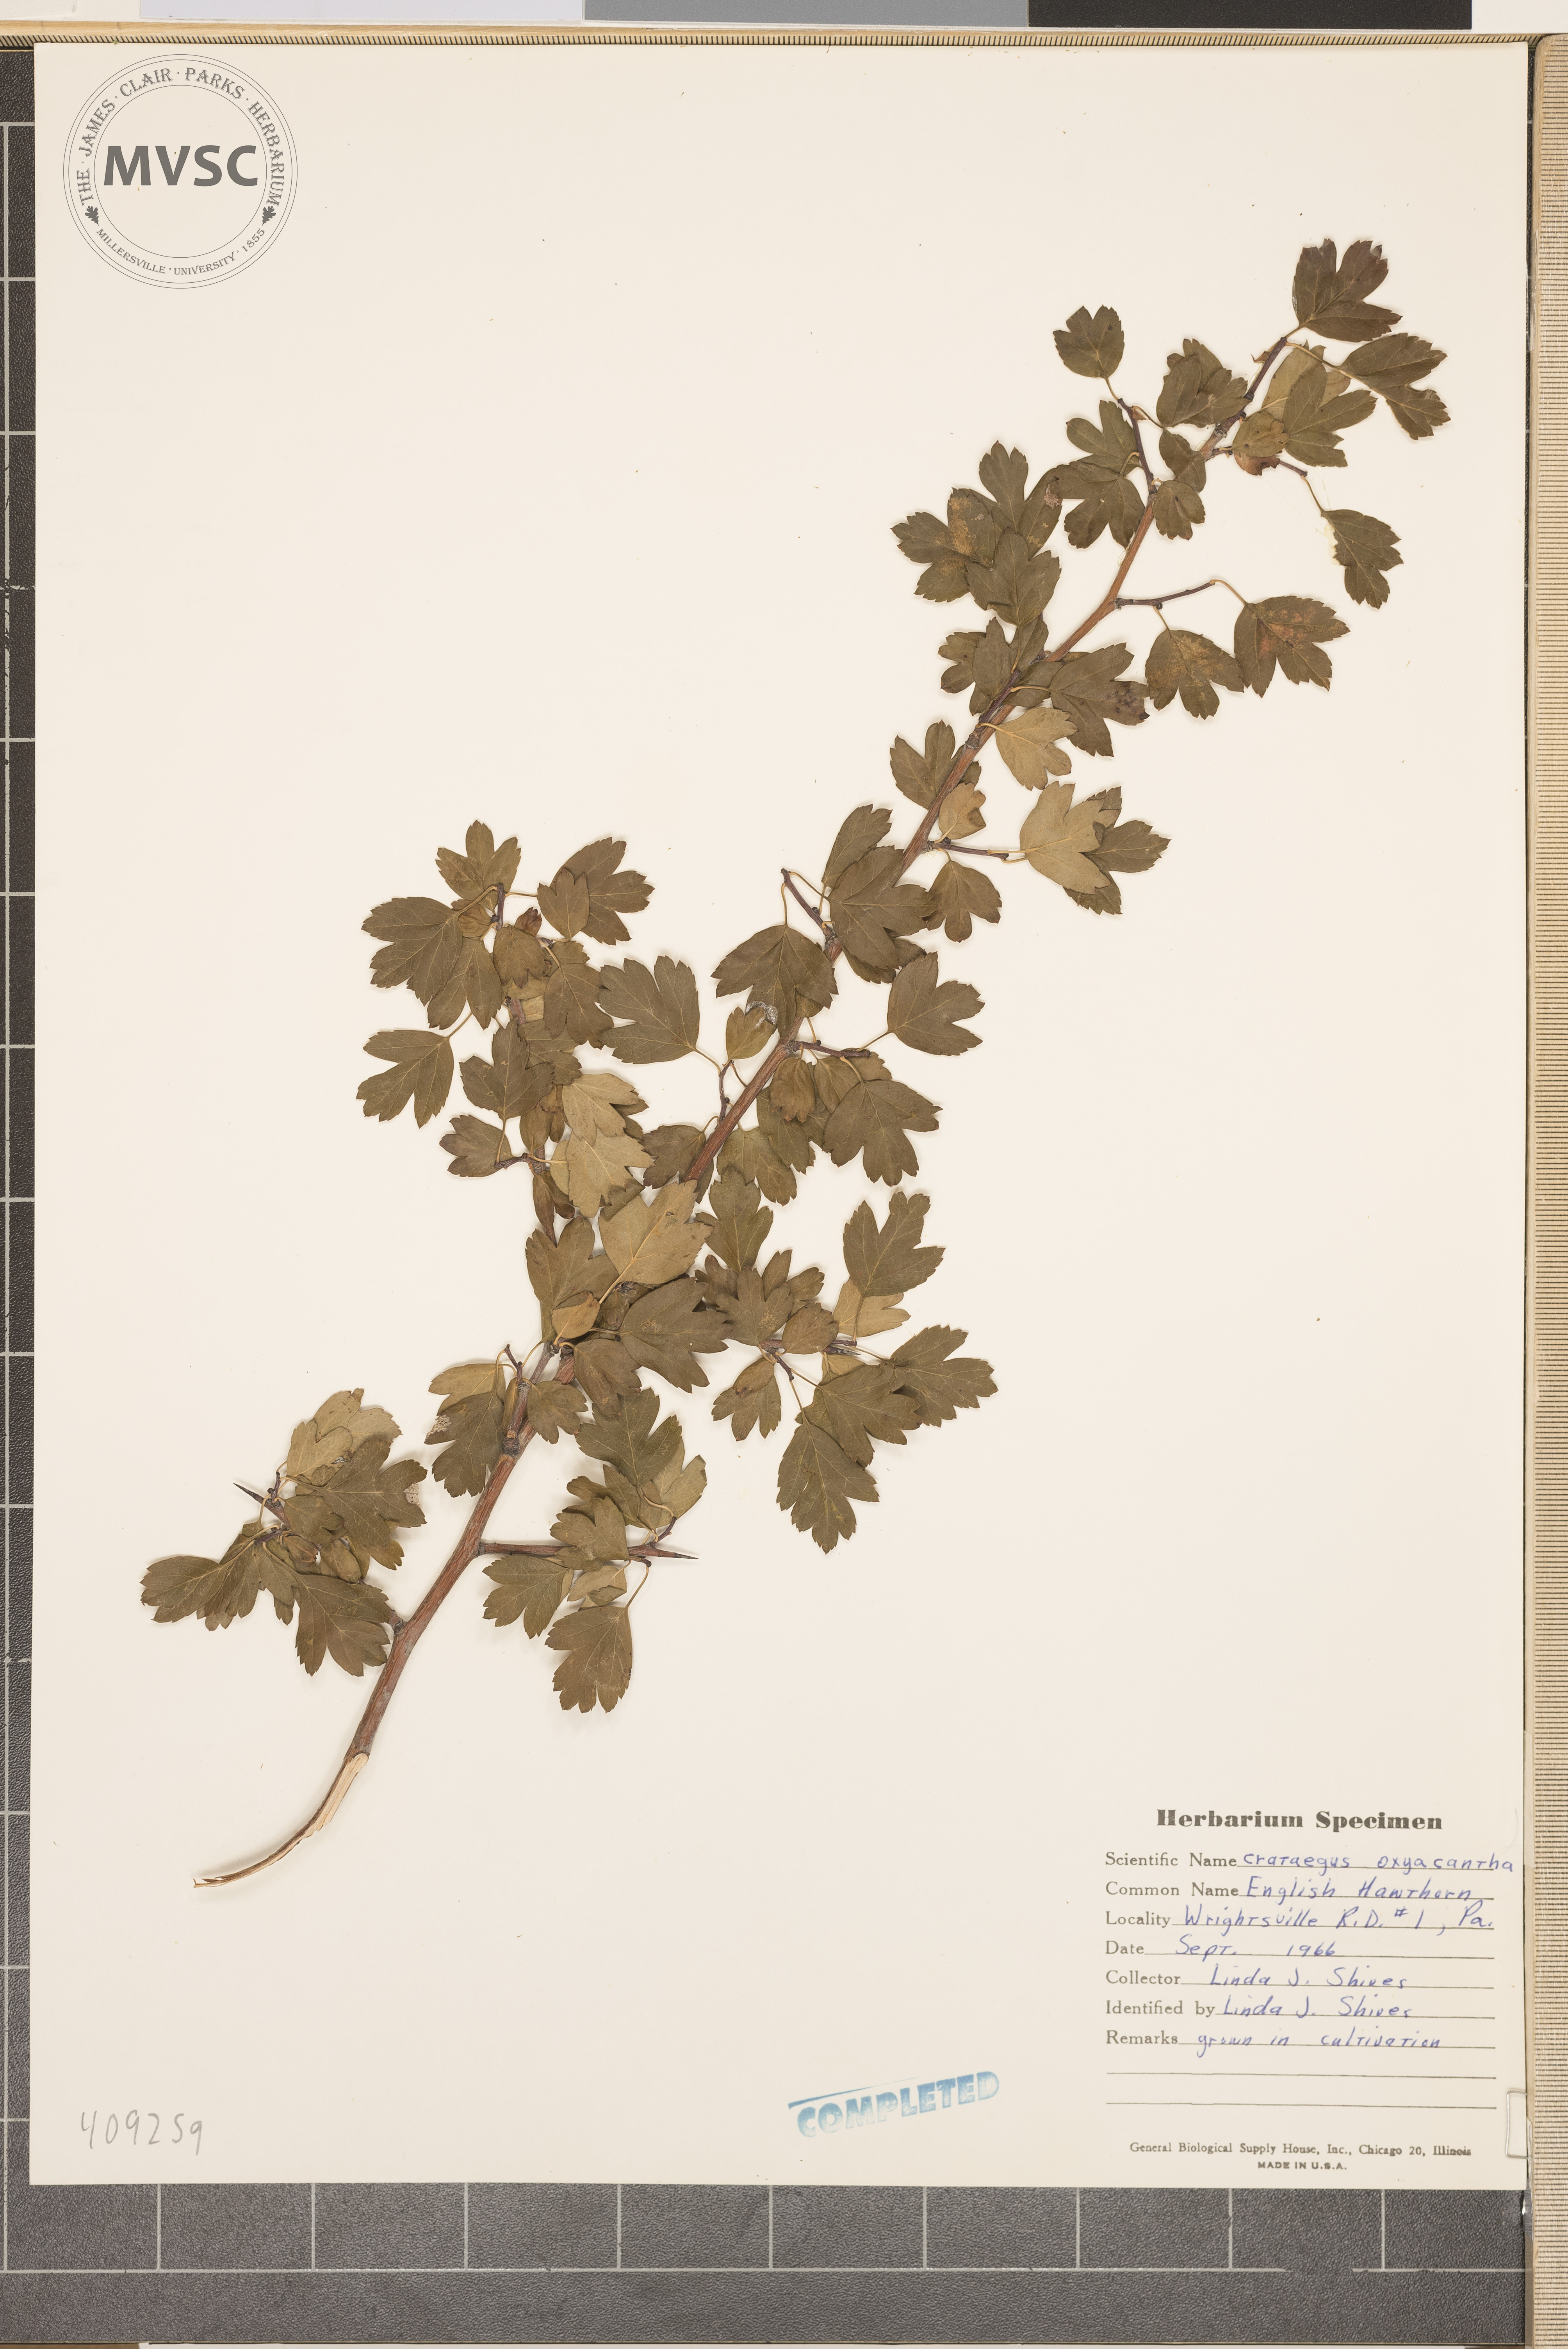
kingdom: Plantae
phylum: Tracheophyta
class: Magnoliopsida
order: Rosales
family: Rosaceae
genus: Crataegus
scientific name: Crataegus
